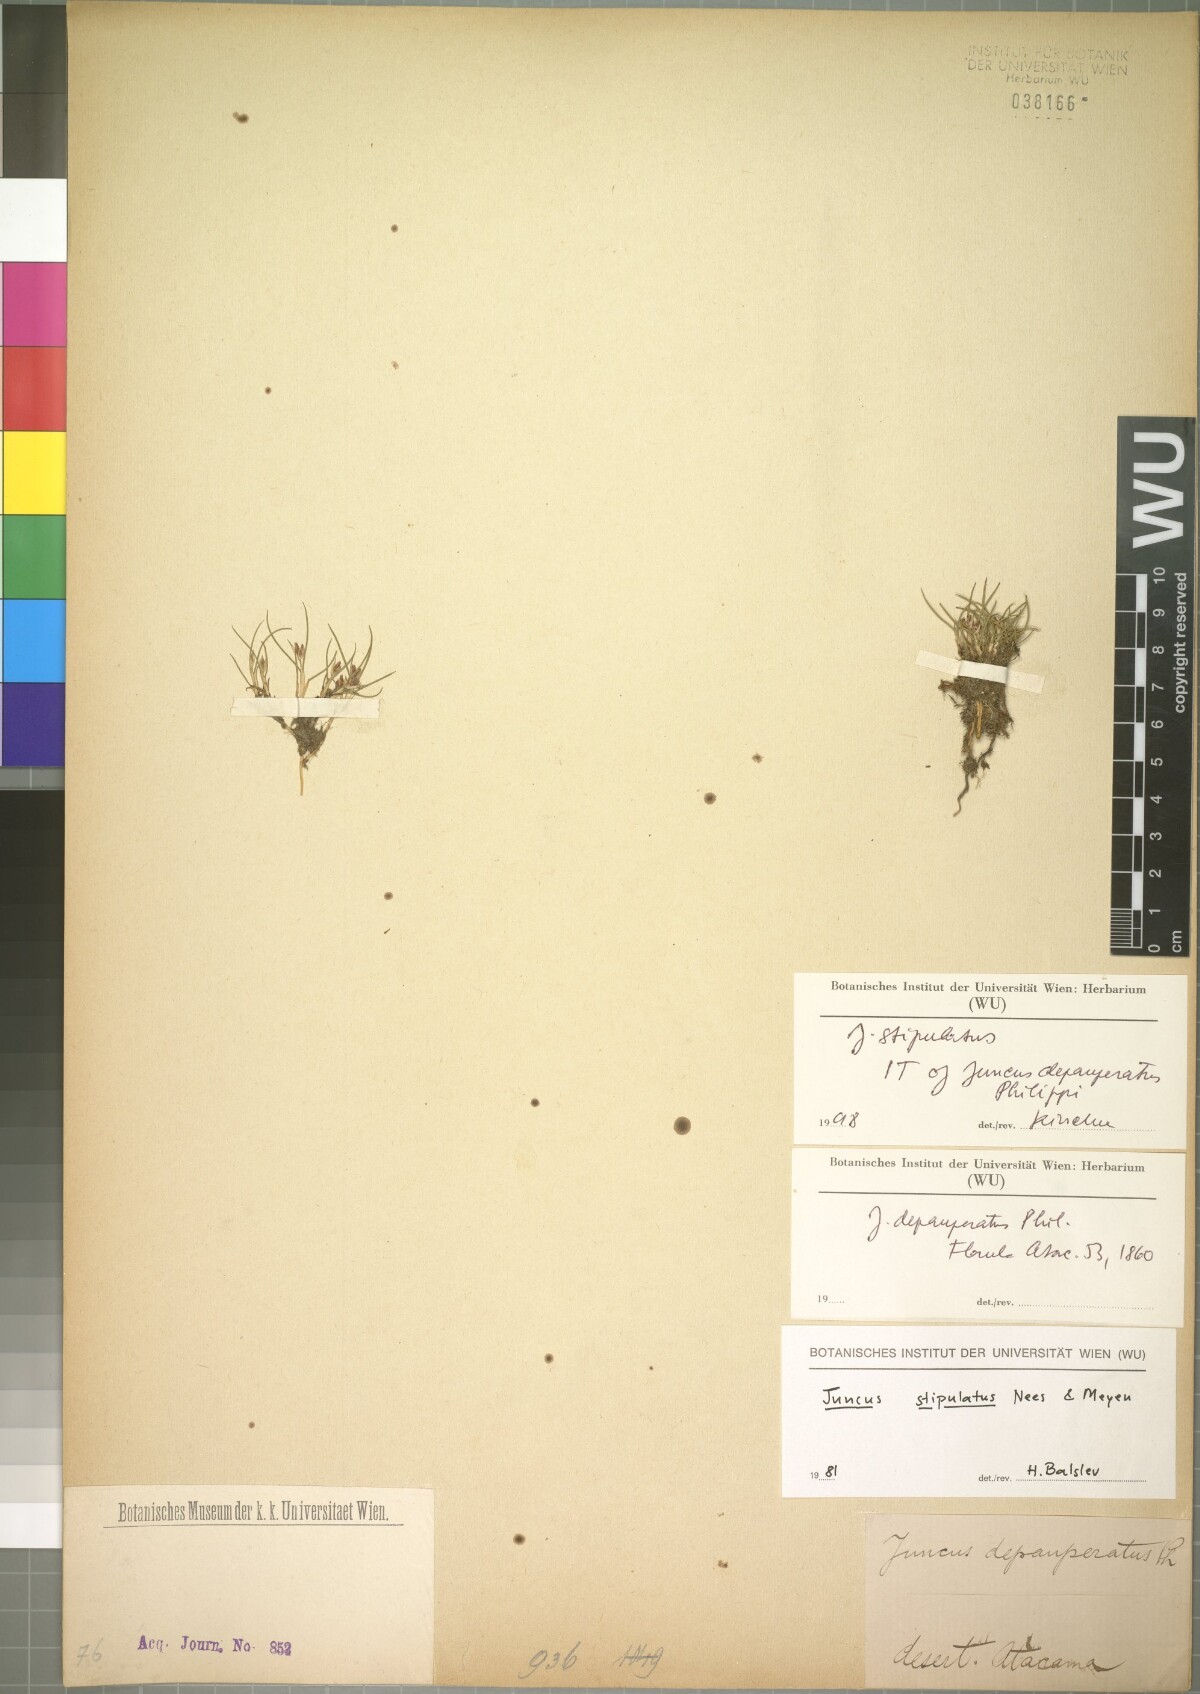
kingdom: Plantae
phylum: Tracheophyta
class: Liliopsida
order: Poales
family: Juncaceae
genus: Juncus
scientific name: Juncus stipulatus
